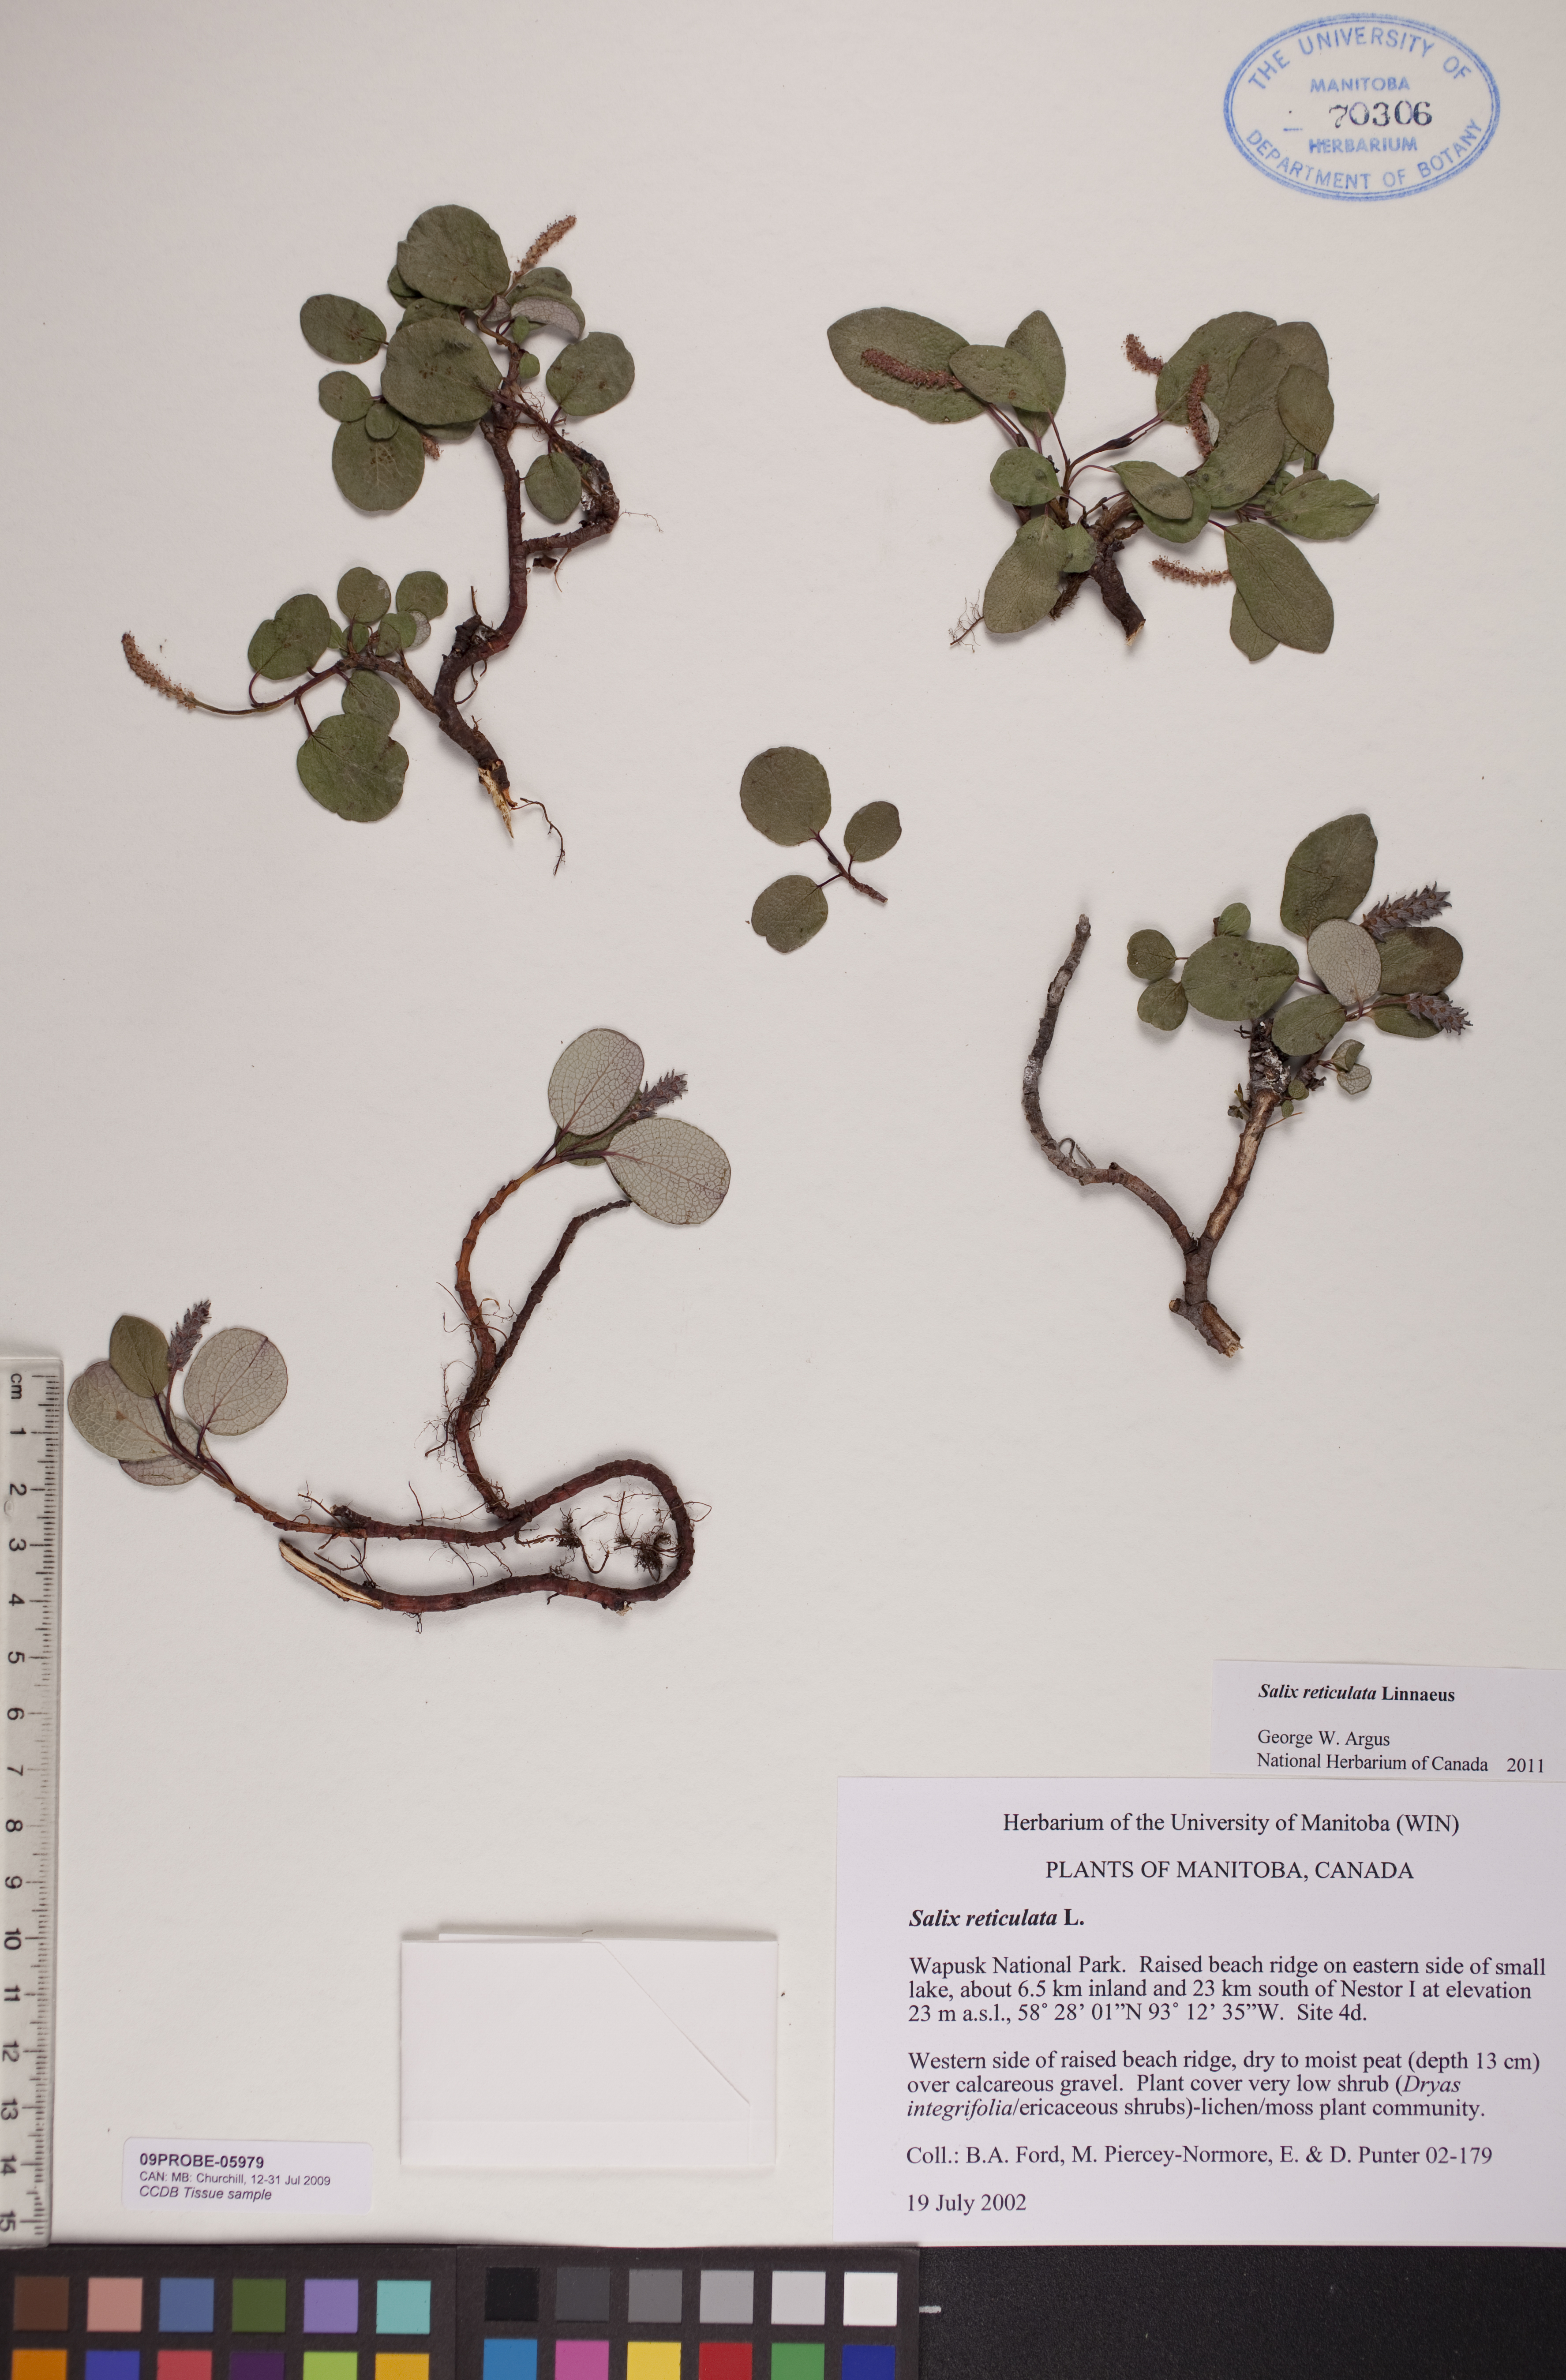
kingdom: Plantae
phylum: Tracheophyta
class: Magnoliopsida
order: Malpighiales
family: Salicaceae
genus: Salix
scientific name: Salix reticulata
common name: Net-leaved willow
